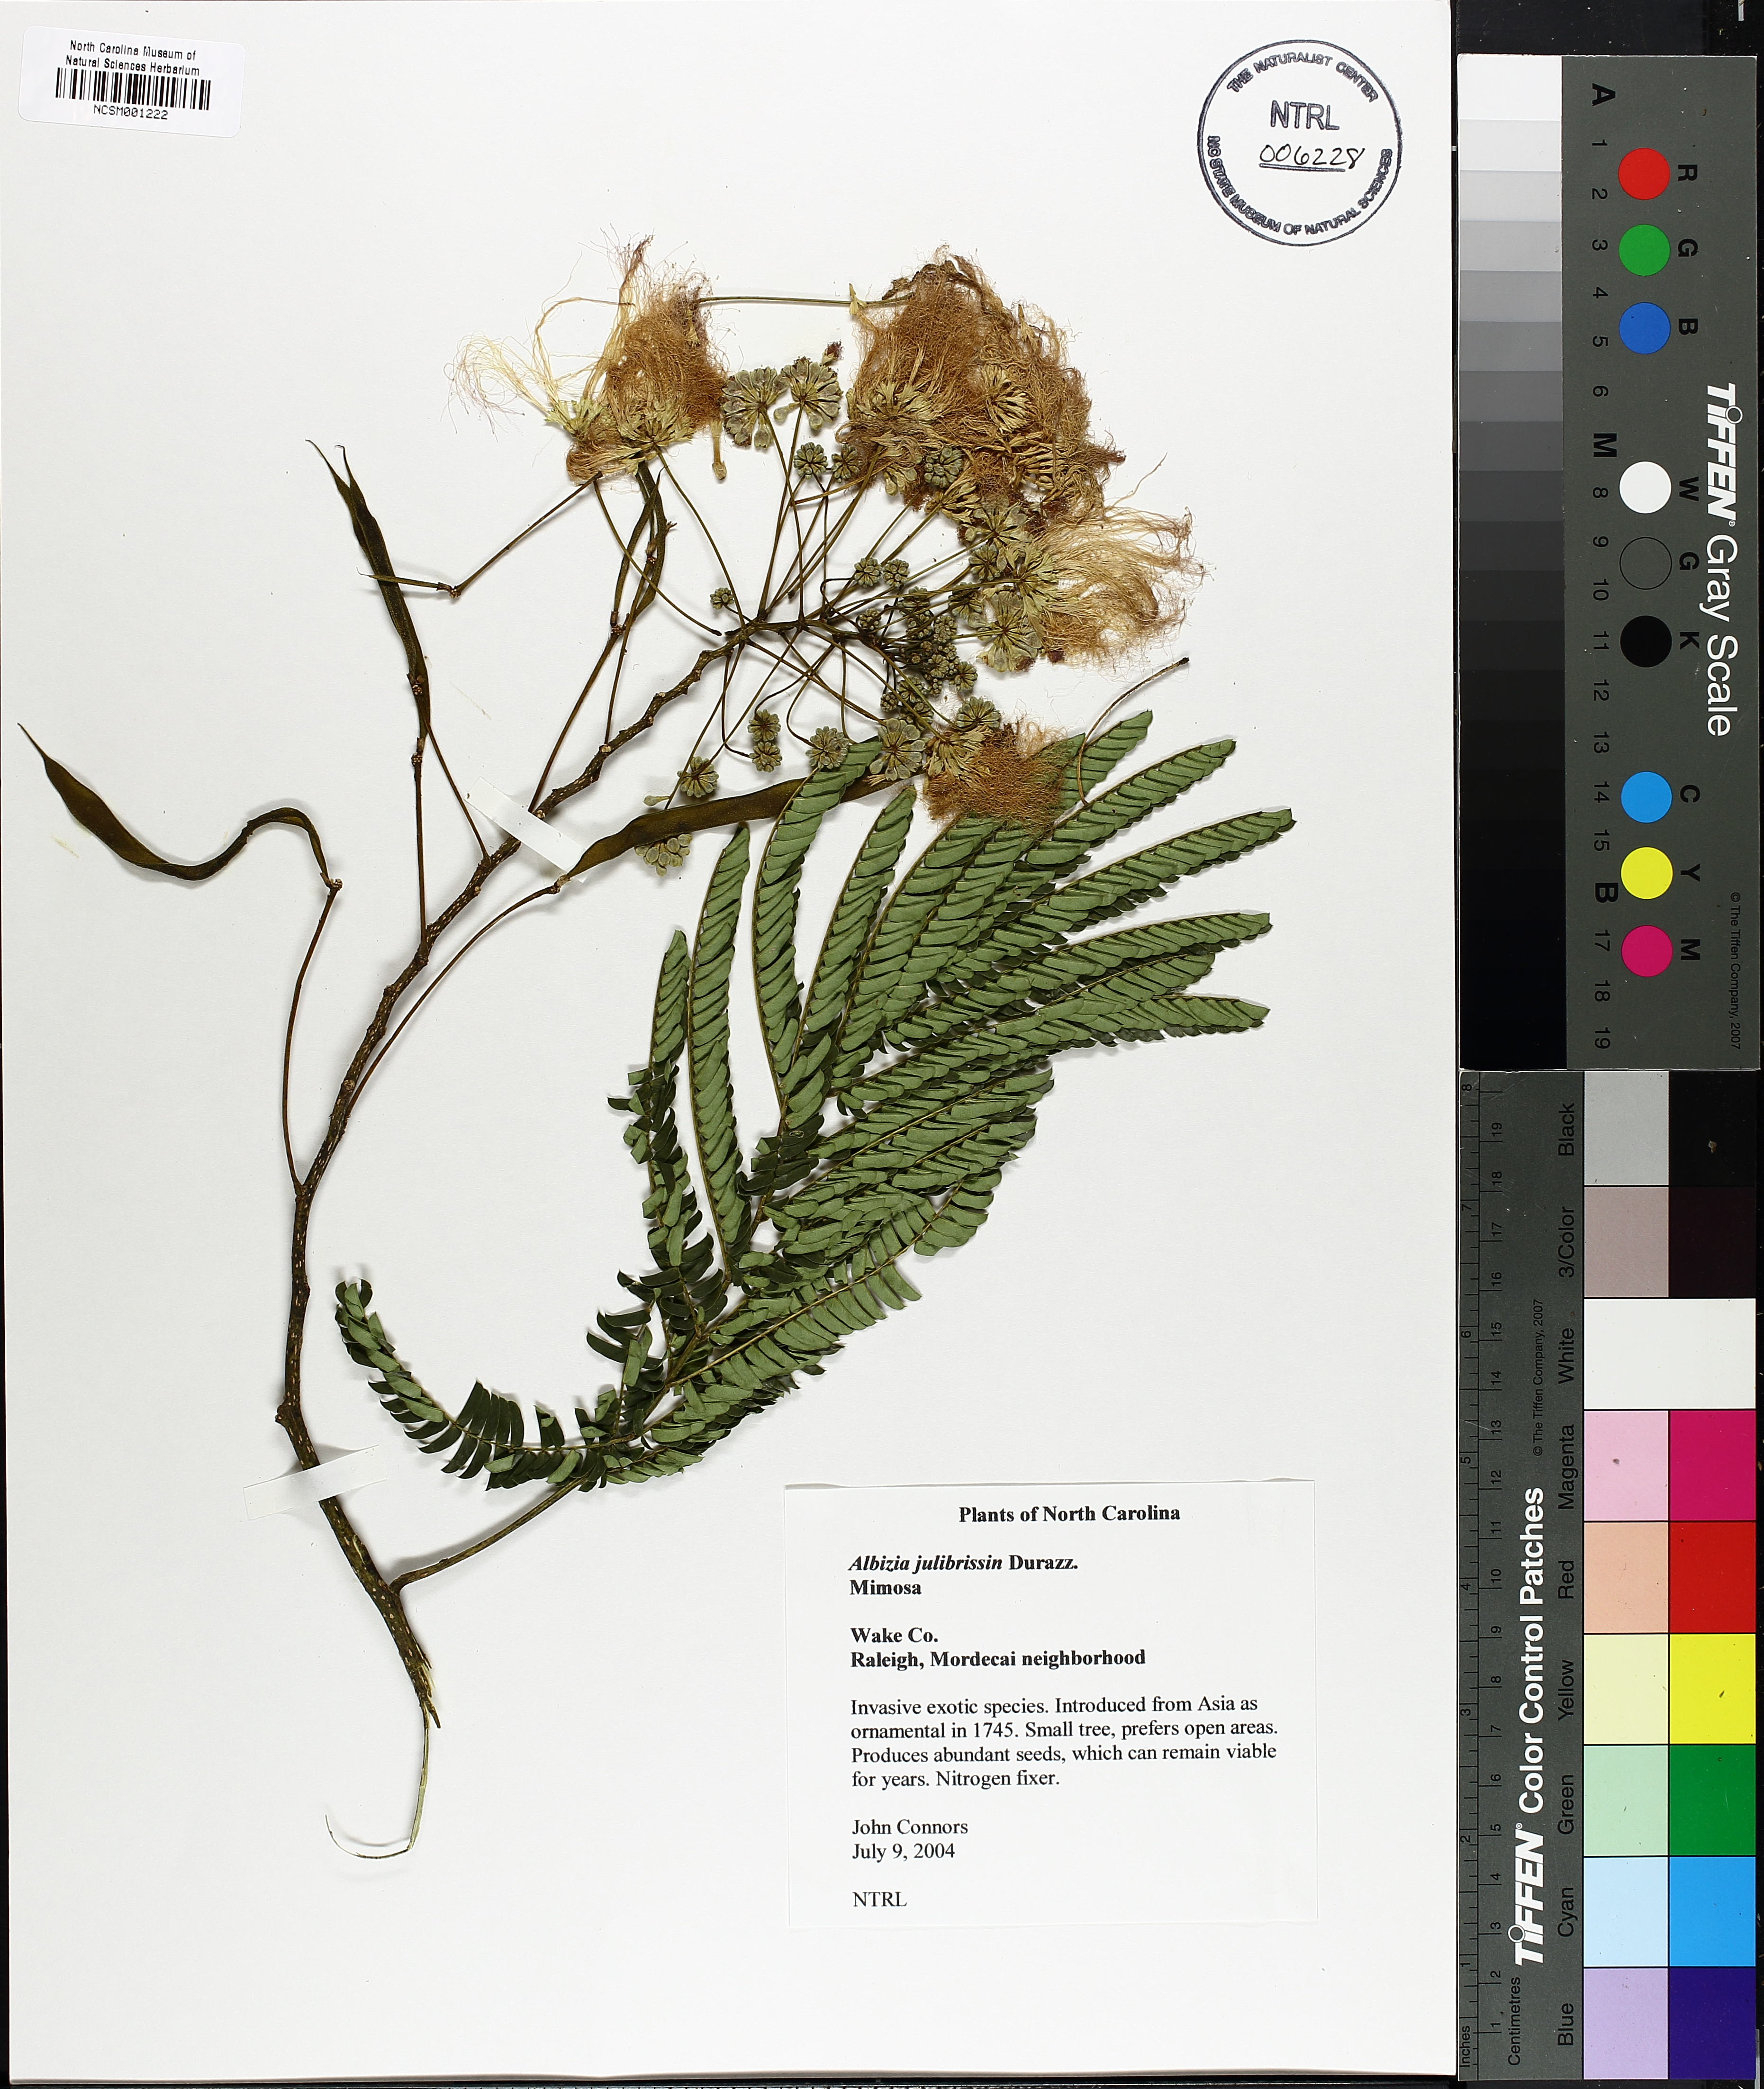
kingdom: Plantae
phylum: Tracheophyta
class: Magnoliopsida
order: Fabales
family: Fabaceae
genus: Albizia
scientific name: Albizia julibrissin
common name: Silktree
